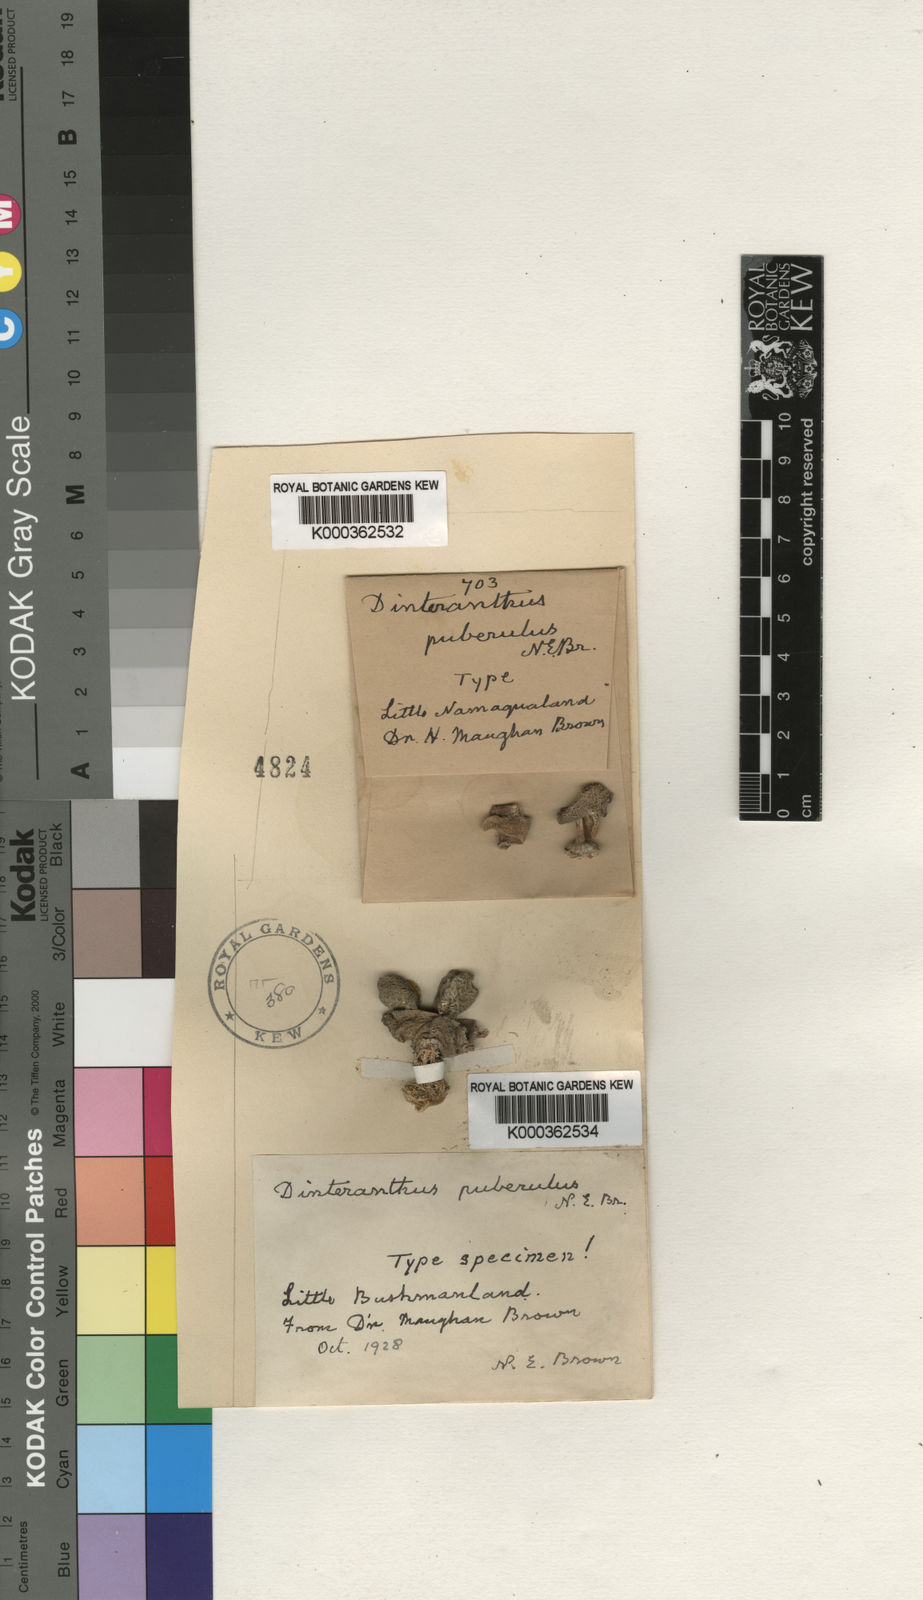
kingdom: Plantae
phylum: Tracheophyta
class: Magnoliopsida
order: Caryophyllales
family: Aizoaceae
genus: Dinteranthus
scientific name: Dinteranthus microspermus
